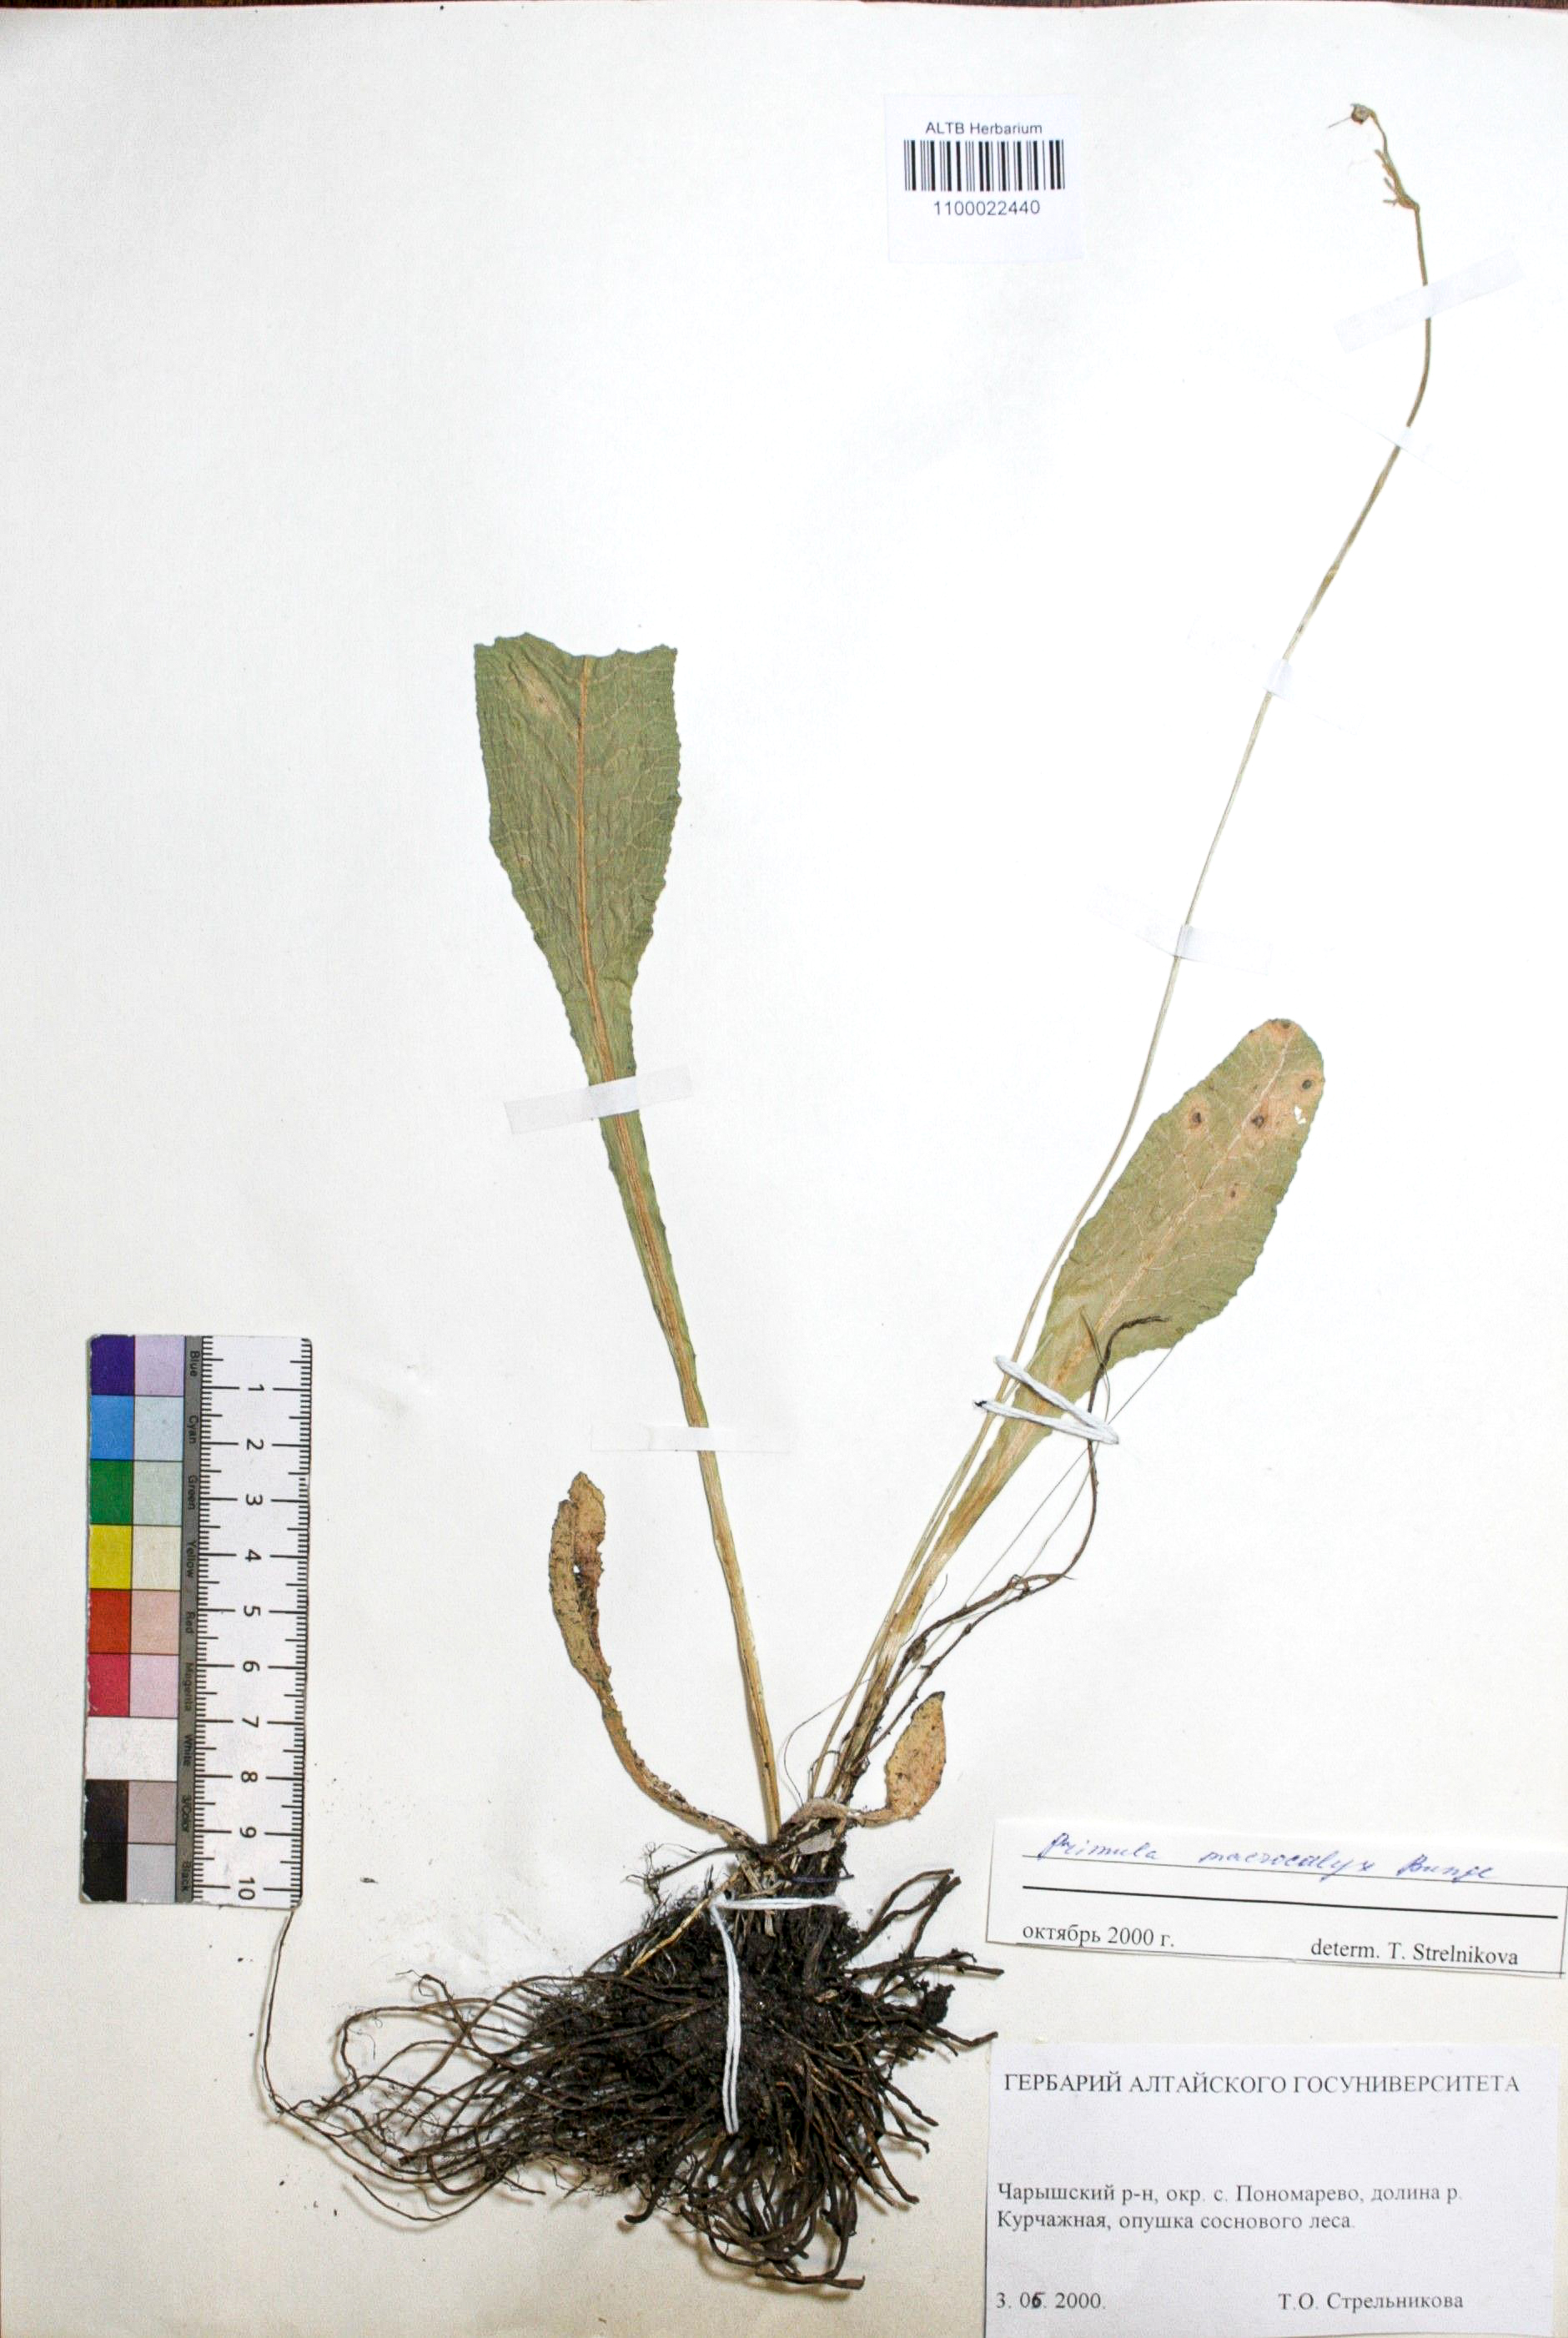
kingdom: Plantae
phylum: Tracheophyta
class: Magnoliopsida
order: Ericales
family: Primulaceae
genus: Primula
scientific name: Primula veris
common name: Cowslip
